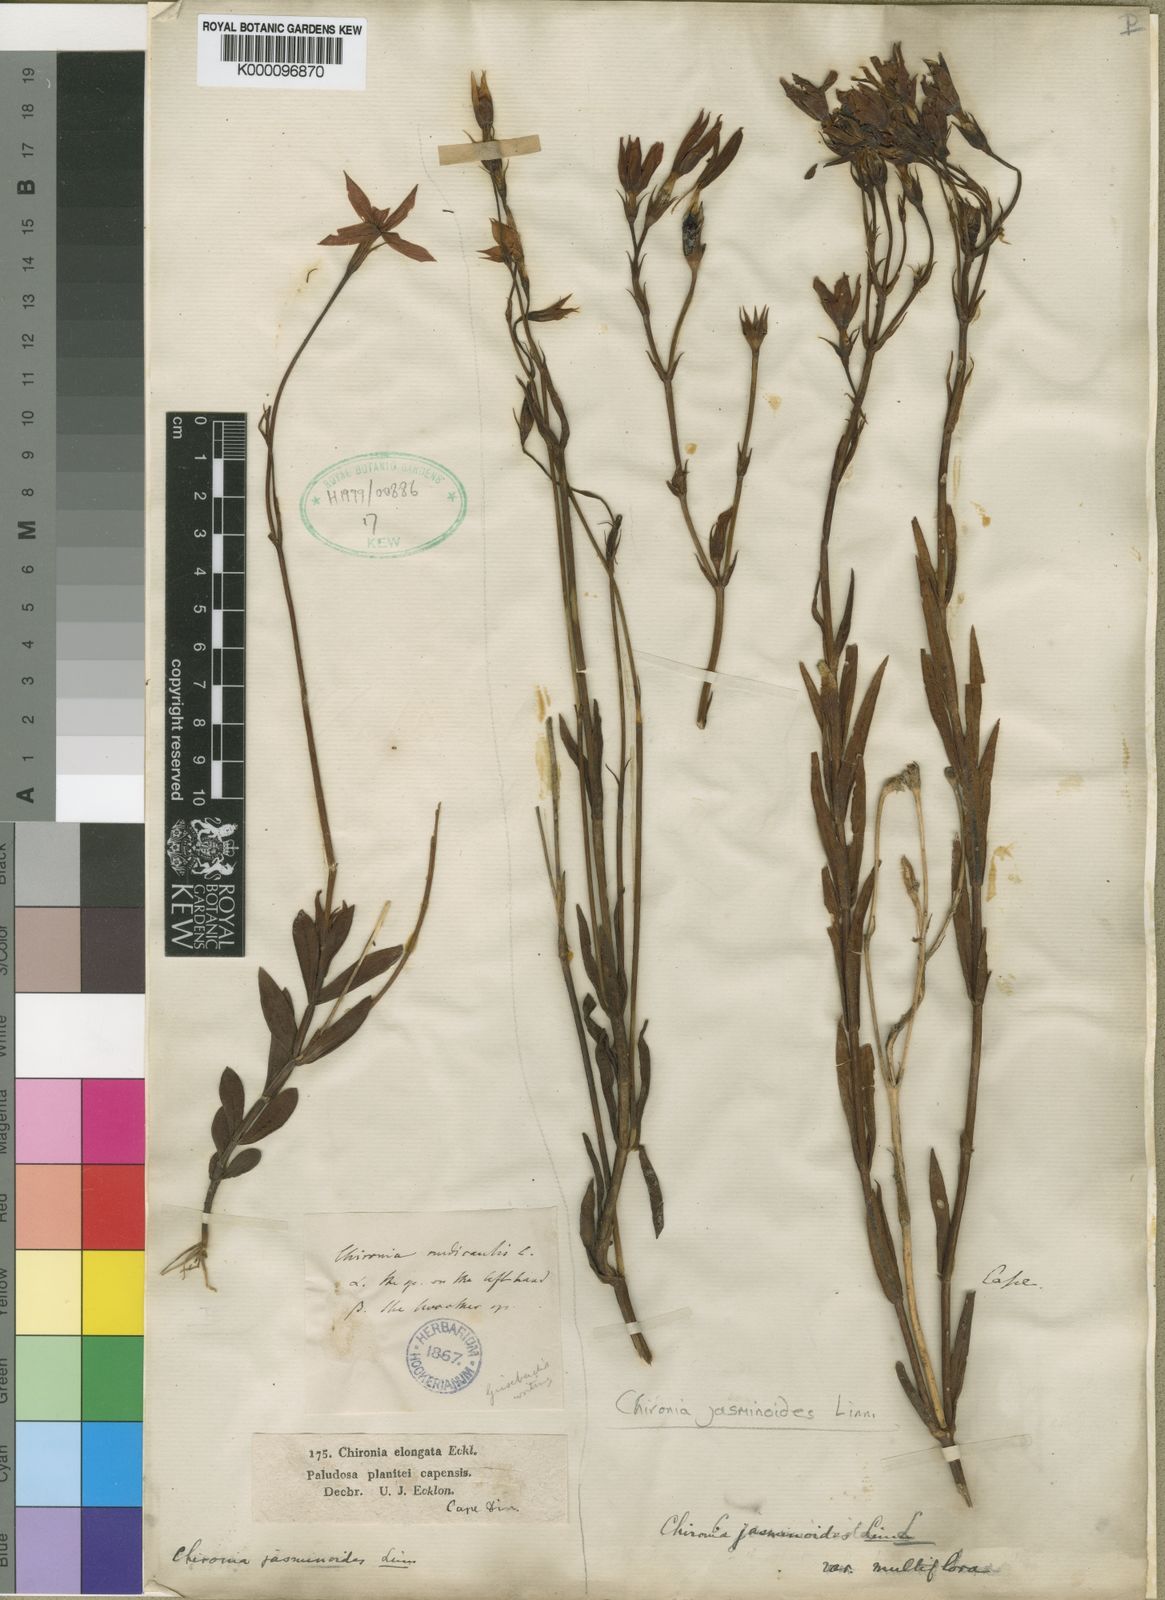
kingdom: Plantae
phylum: Tracheophyta
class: Magnoliopsida
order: Gentianales
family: Gentianaceae
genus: Chironia
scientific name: Chironia jasminoides
